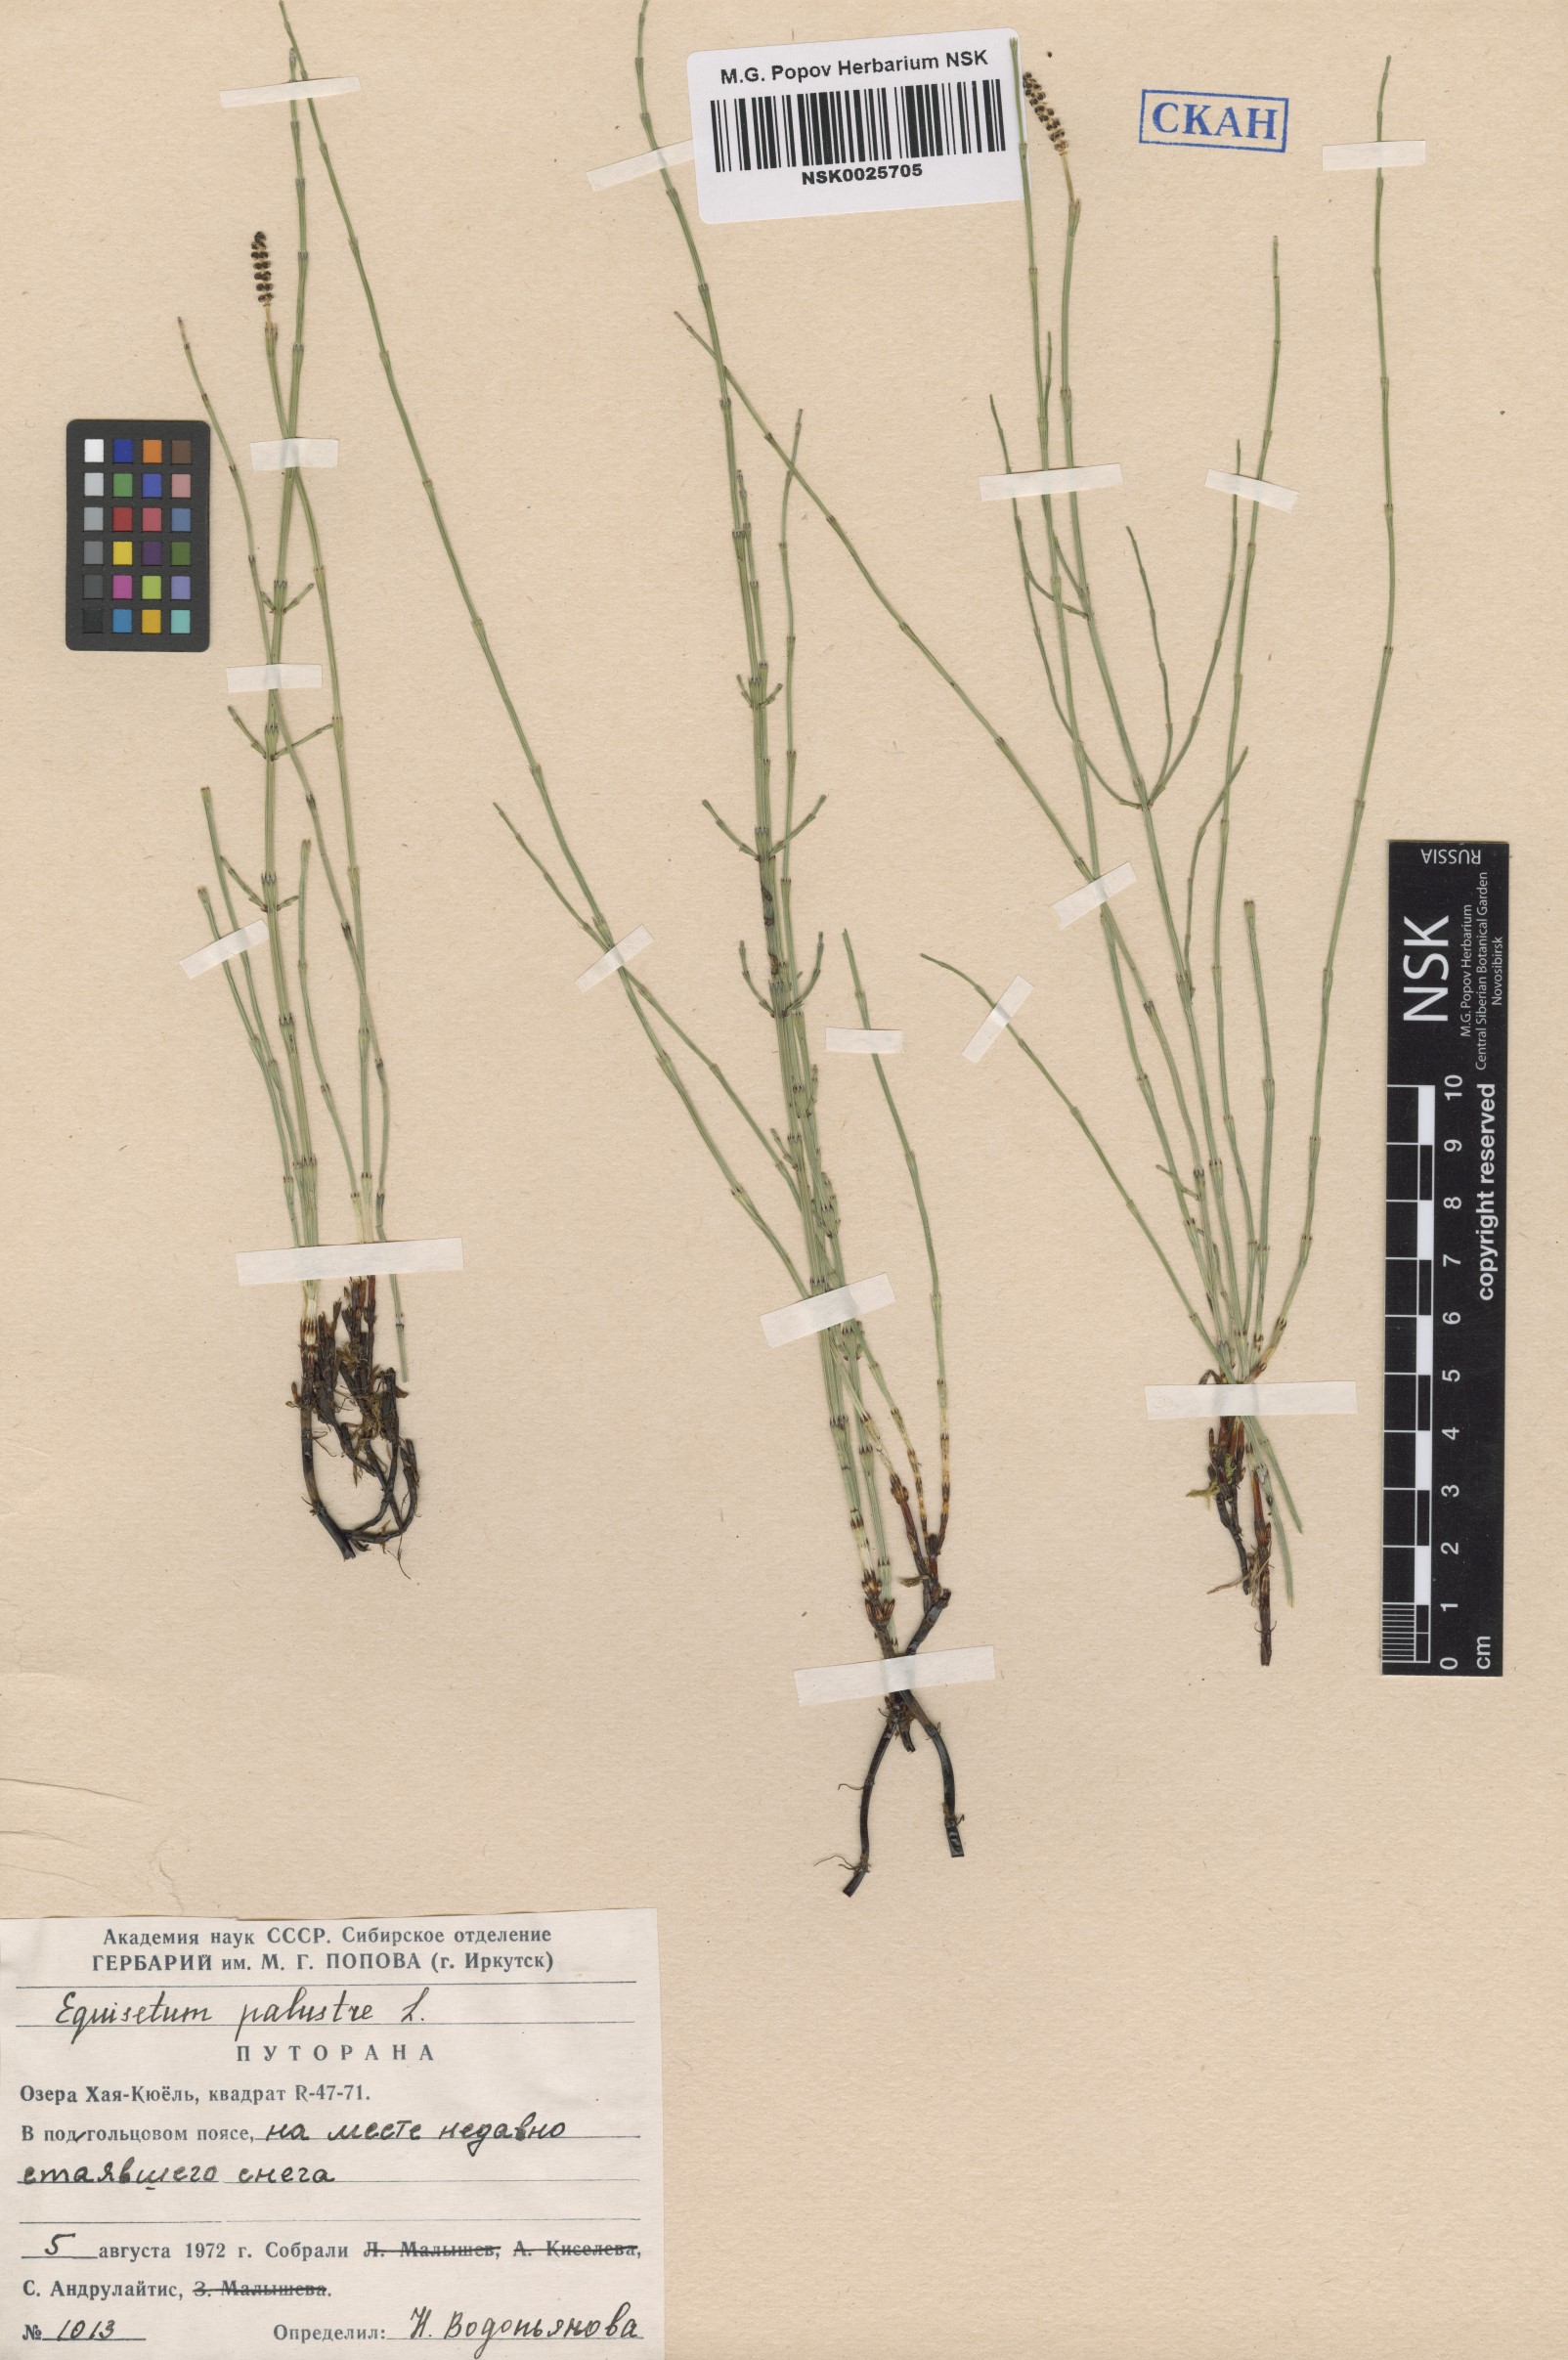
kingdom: Plantae
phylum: Tracheophyta
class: Polypodiopsida
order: Equisetales
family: Equisetaceae
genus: Equisetum
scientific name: Equisetum palustre
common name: Marsh horsetail
